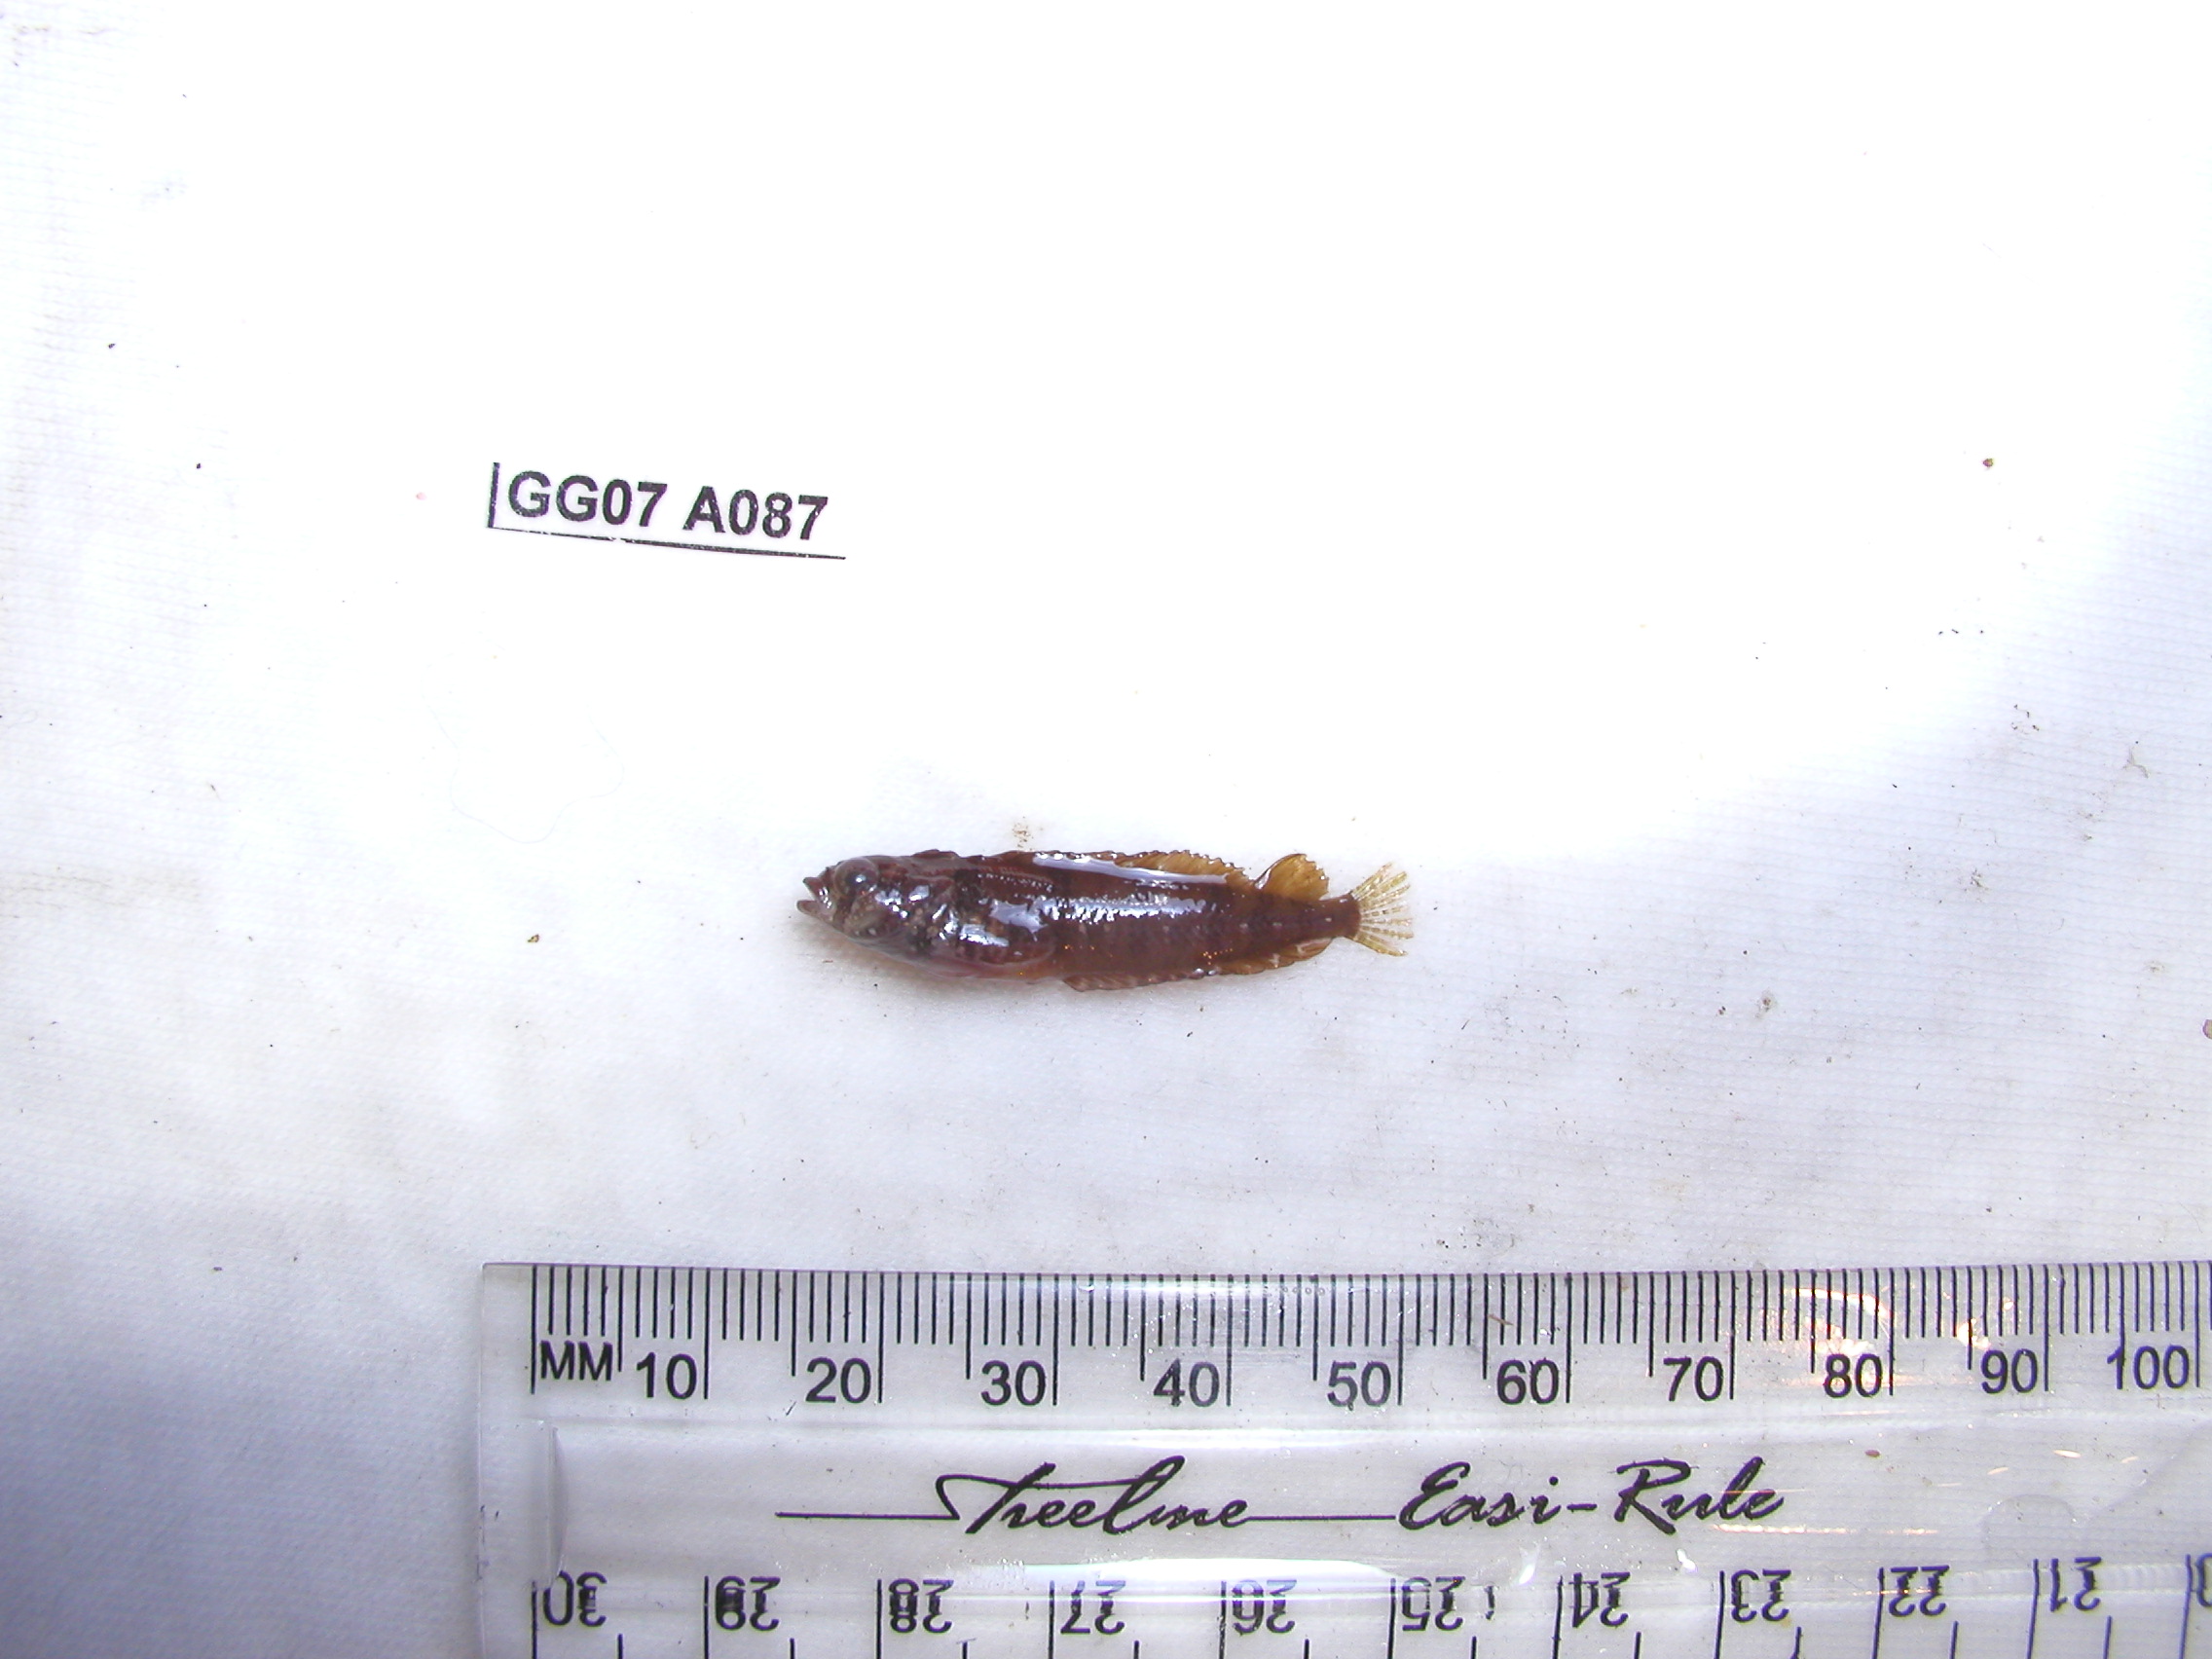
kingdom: Animalia
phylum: Chordata
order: Perciformes
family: Clinidae
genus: Blennioclinus
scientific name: Blennioclinus stella
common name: Silverbubble klipfish
